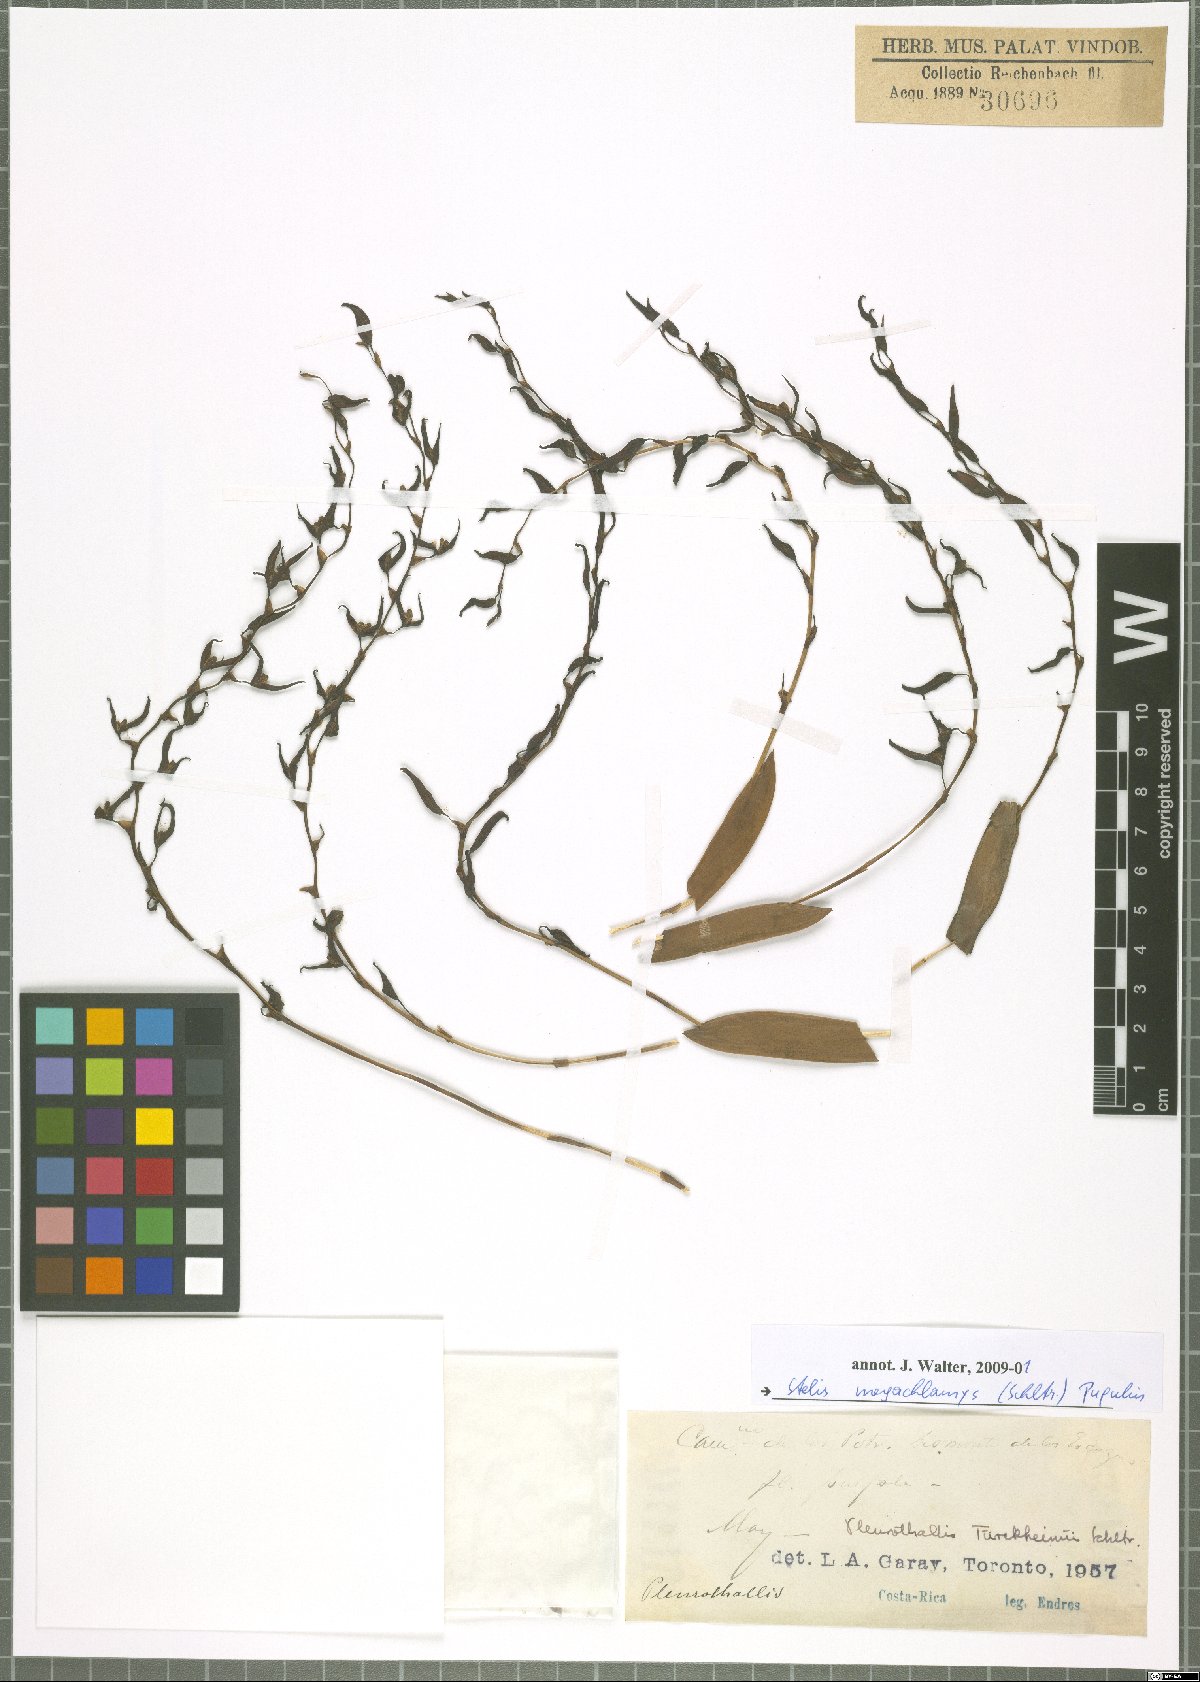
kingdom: Plantae
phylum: Tracheophyta
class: Liliopsida
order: Asparagales
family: Orchidaceae
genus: Stelis
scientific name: Stelis megachlamys
